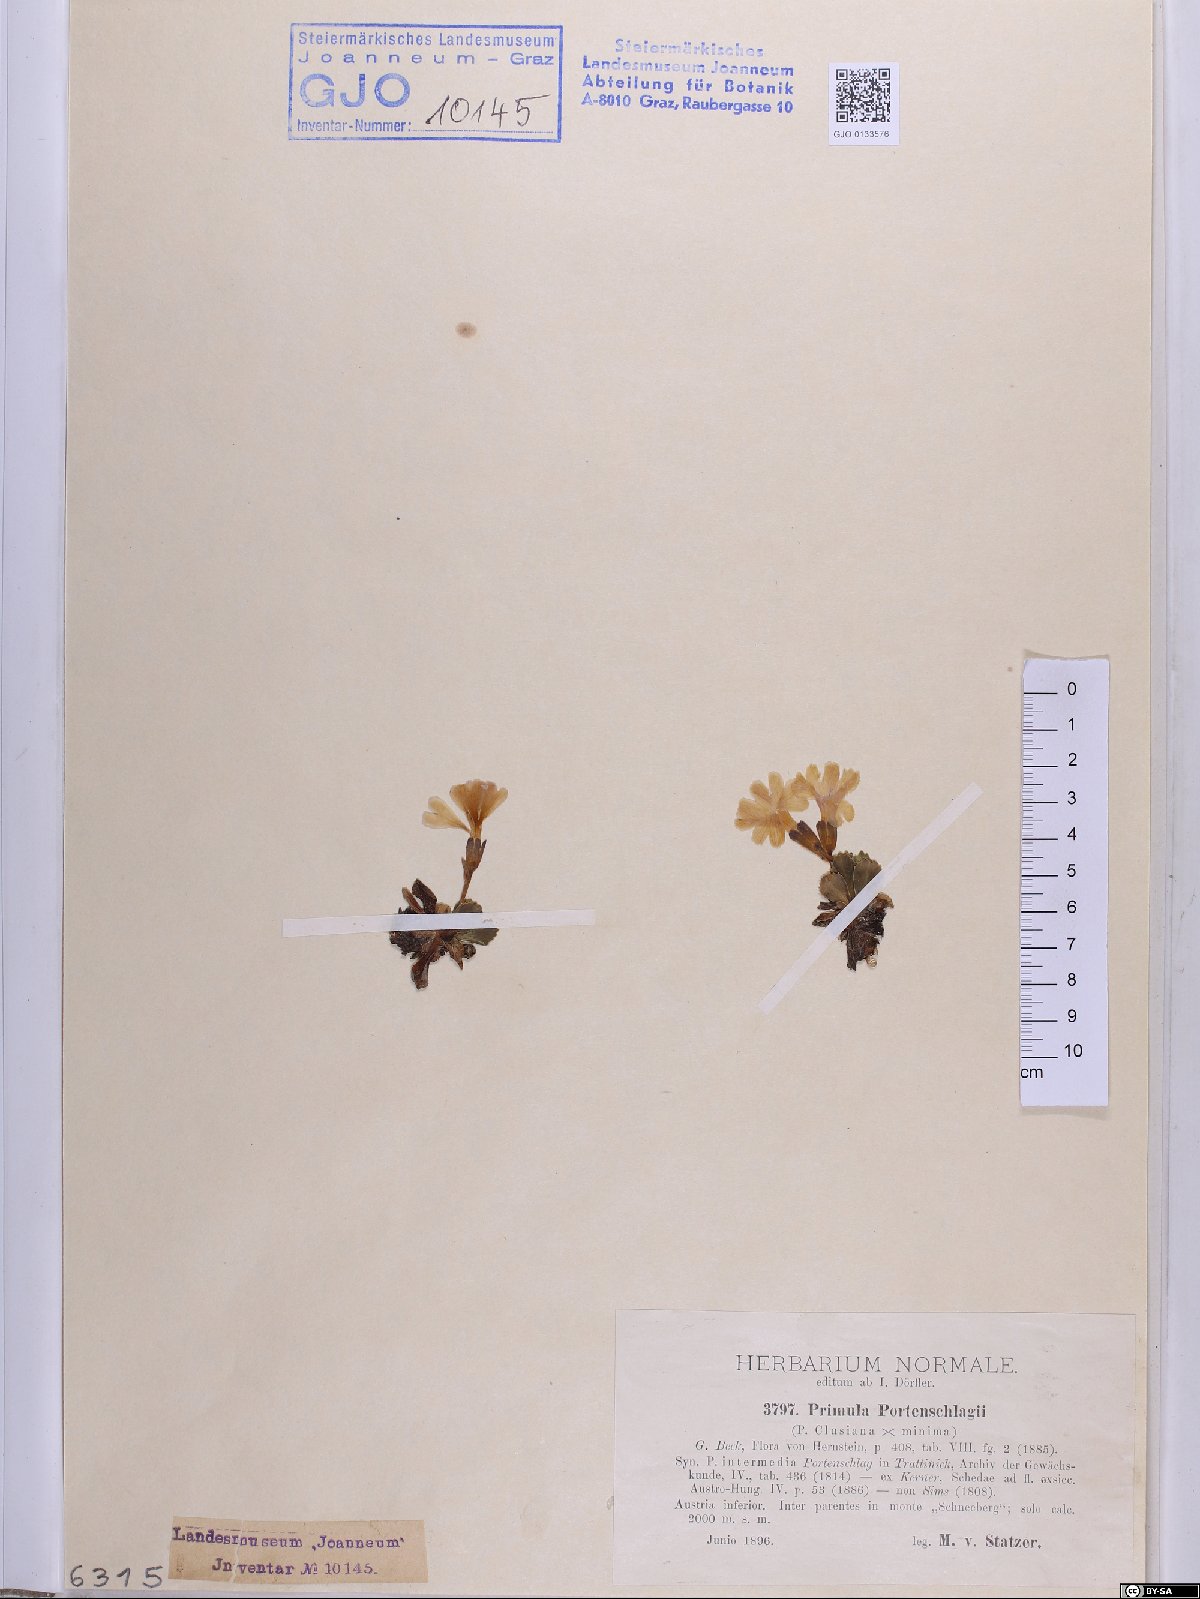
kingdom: Plantae
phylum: Tracheophyta
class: Magnoliopsida
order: Ericales
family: Primulaceae
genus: Primula
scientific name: Primula
